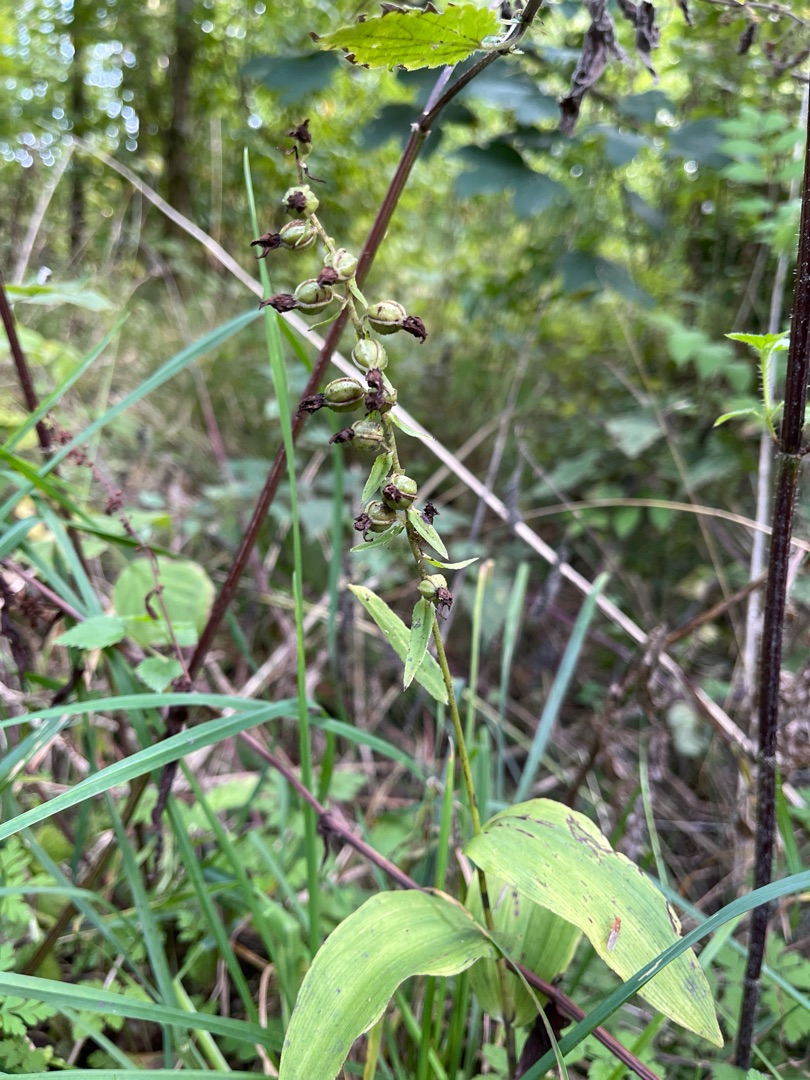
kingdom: Plantae
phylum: Tracheophyta
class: Liliopsida
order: Asparagales
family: Orchidaceae
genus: Epipactis
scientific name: Epipactis helleborine
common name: Skov-hullæbe
